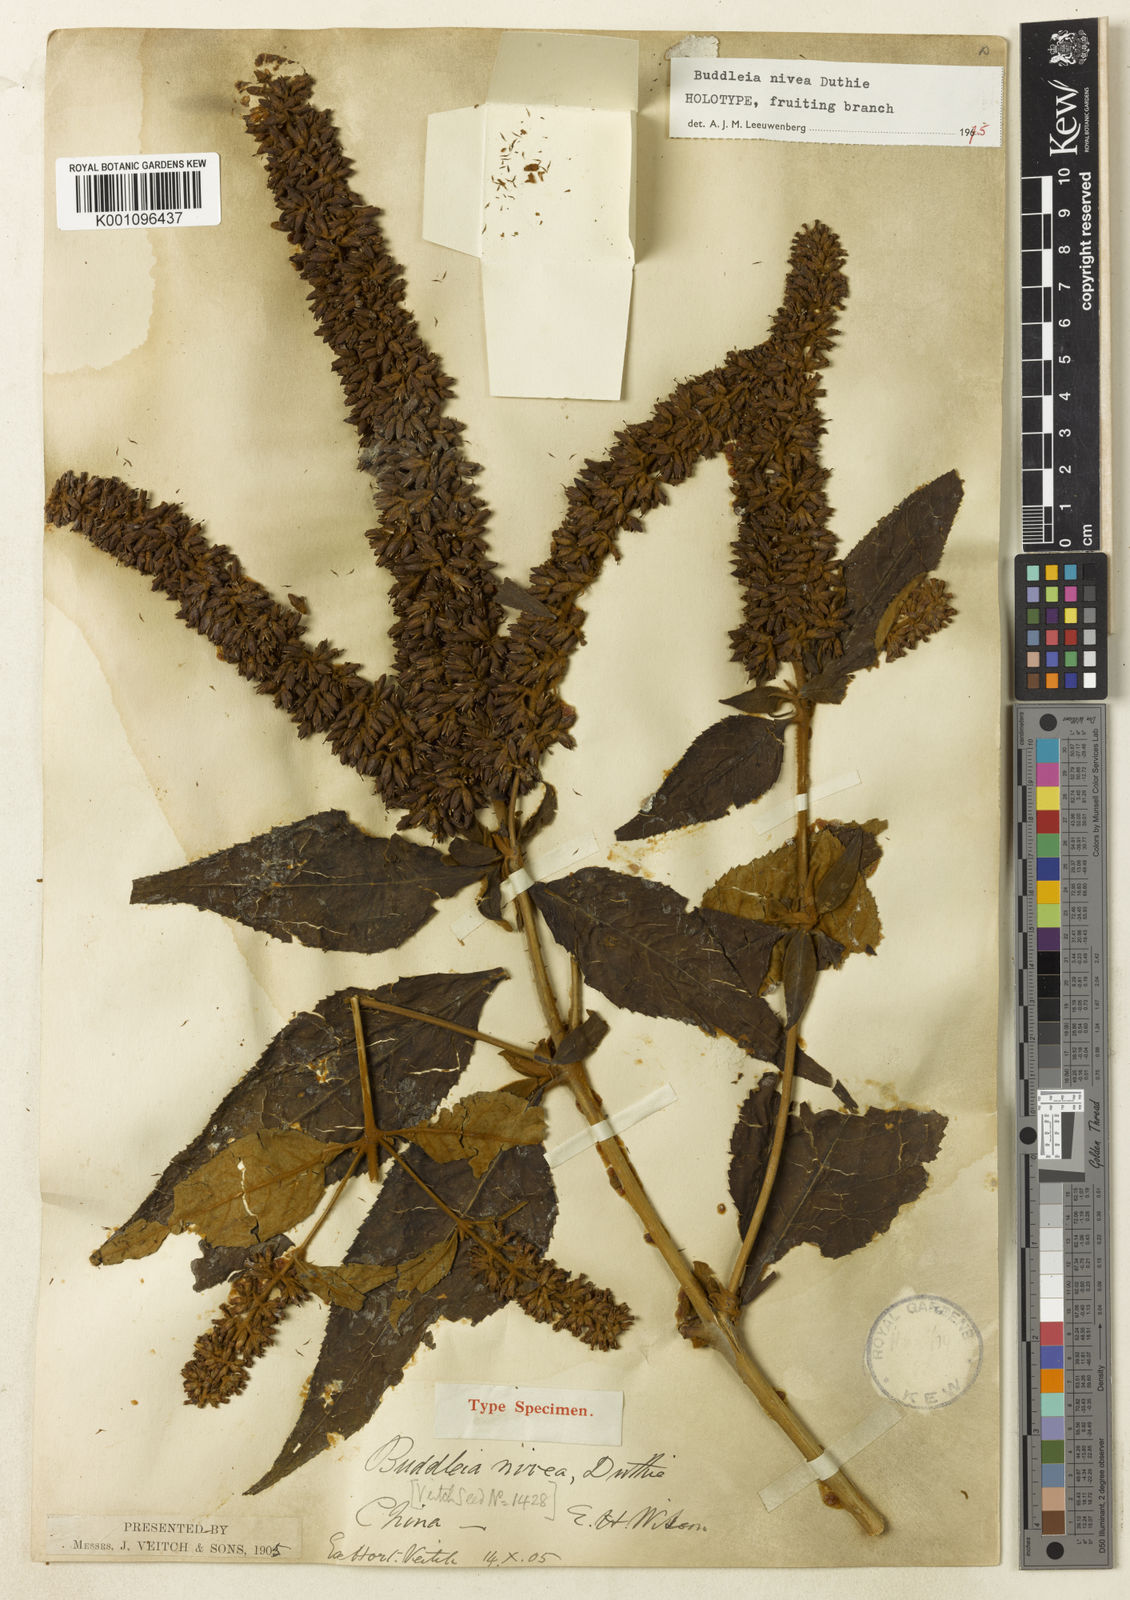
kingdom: Plantae
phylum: Tracheophyta
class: Magnoliopsida
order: Lamiales
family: Scrophulariaceae
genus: Buddleja
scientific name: Buddleja nivea
